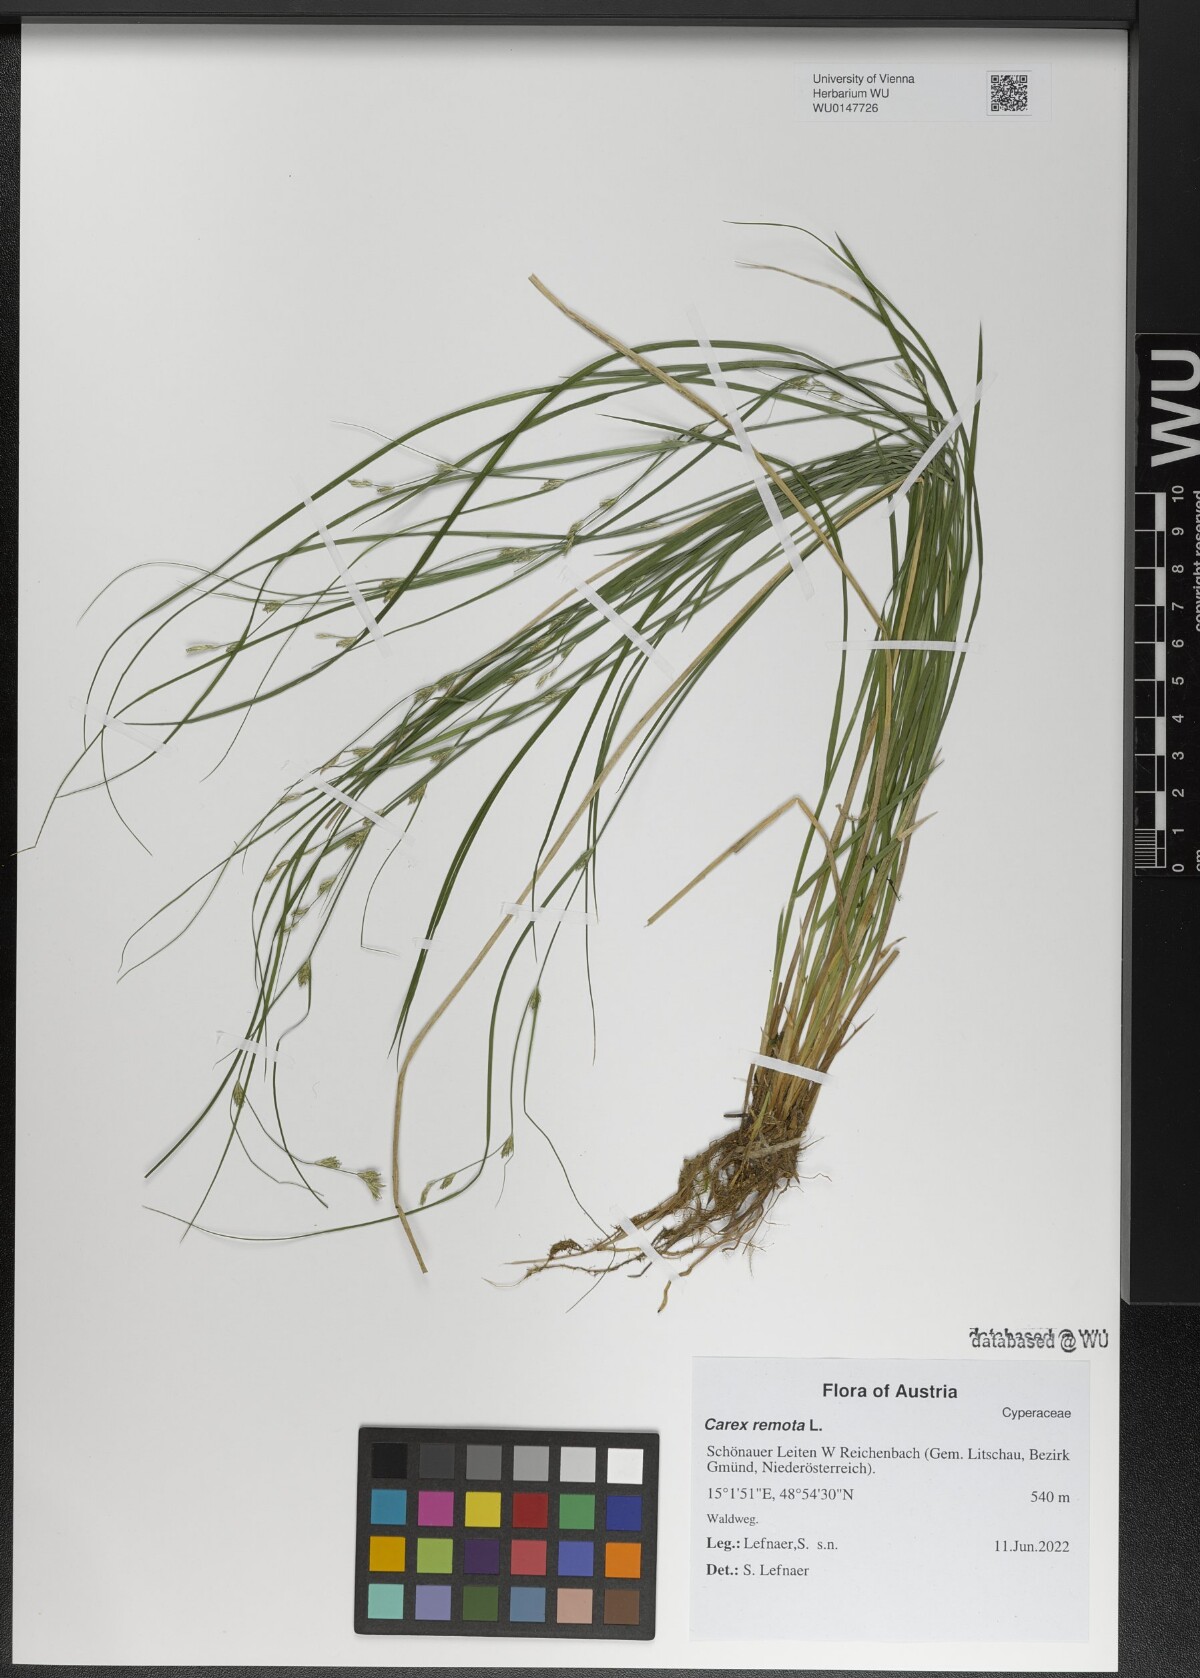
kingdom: Plantae
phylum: Tracheophyta
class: Liliopsida
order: Poales
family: Cyperaceae
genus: Carex
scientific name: Carex remota
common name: Remote sedge
